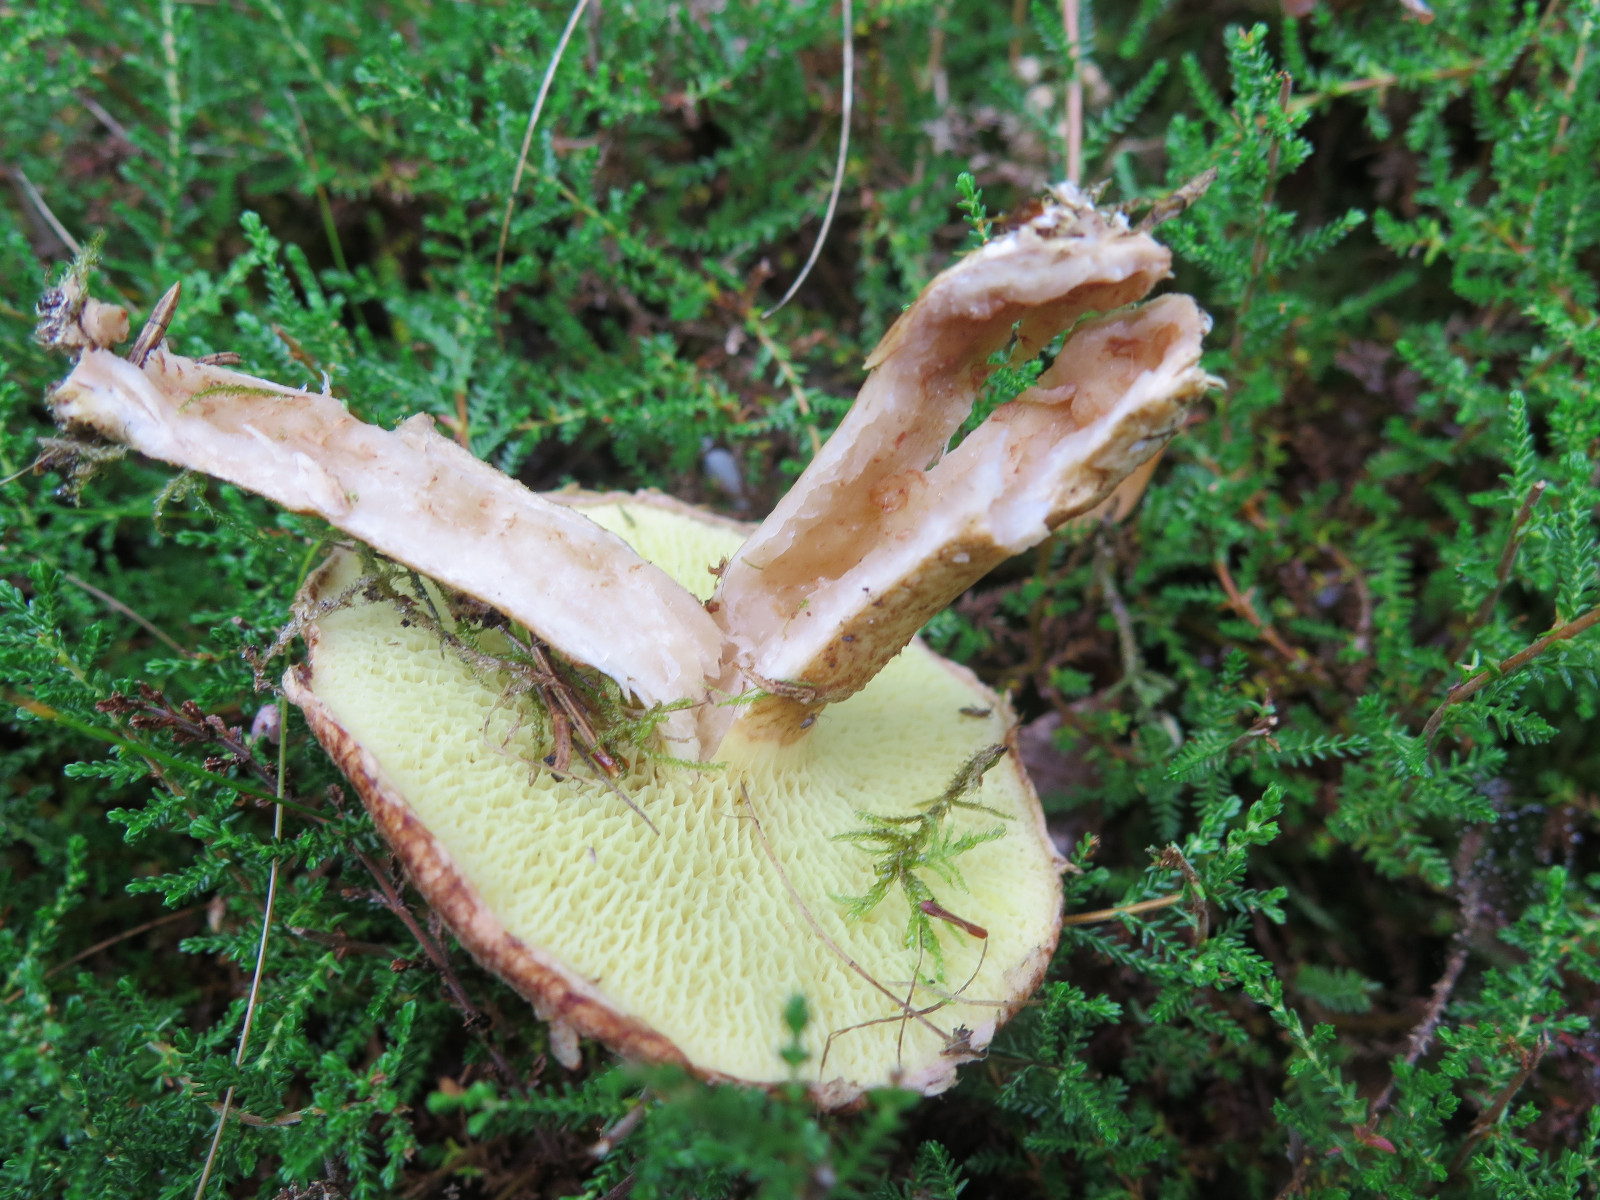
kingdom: Fungi
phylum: Basidiomycota
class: Agaricomycetes
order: Boletales
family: Suillaceae
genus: Suillus
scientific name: Suillus cavipes
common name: hulstokket slimrørhat
